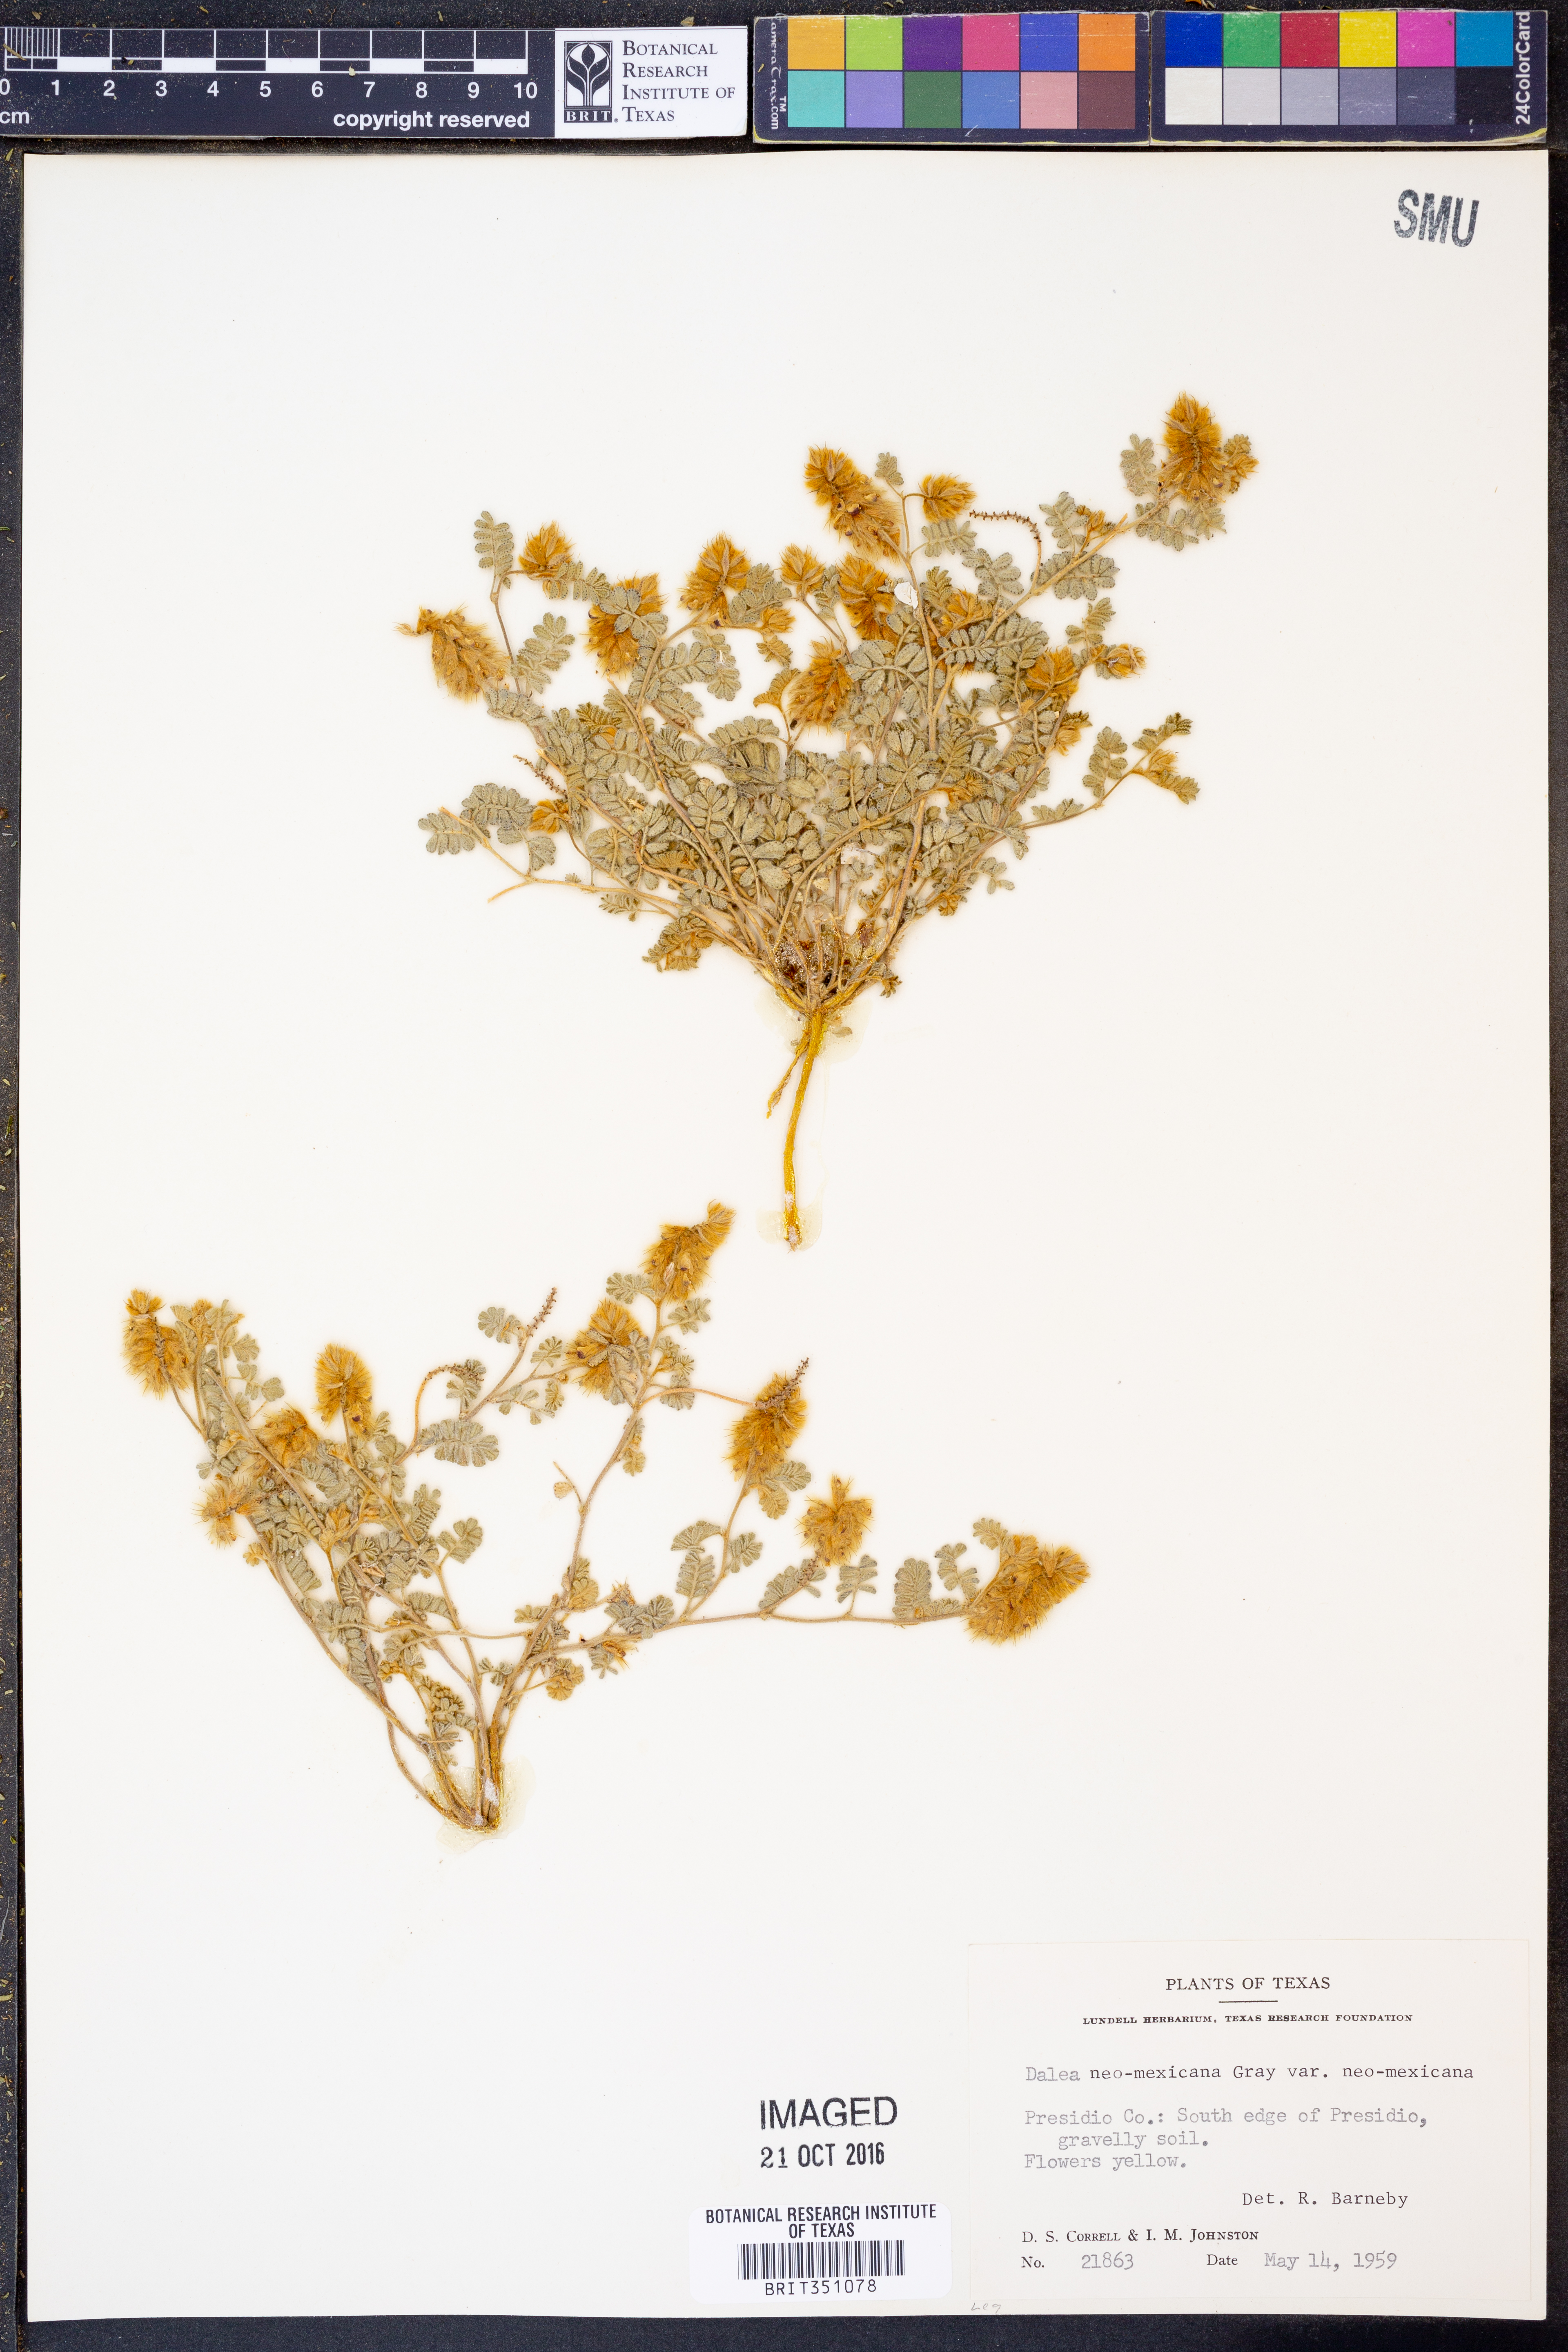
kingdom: Plantae
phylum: Tracheophyta
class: Magnoliopsida
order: Fabales
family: Fabaceae
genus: Dalea
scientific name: Dalea neomexicana
